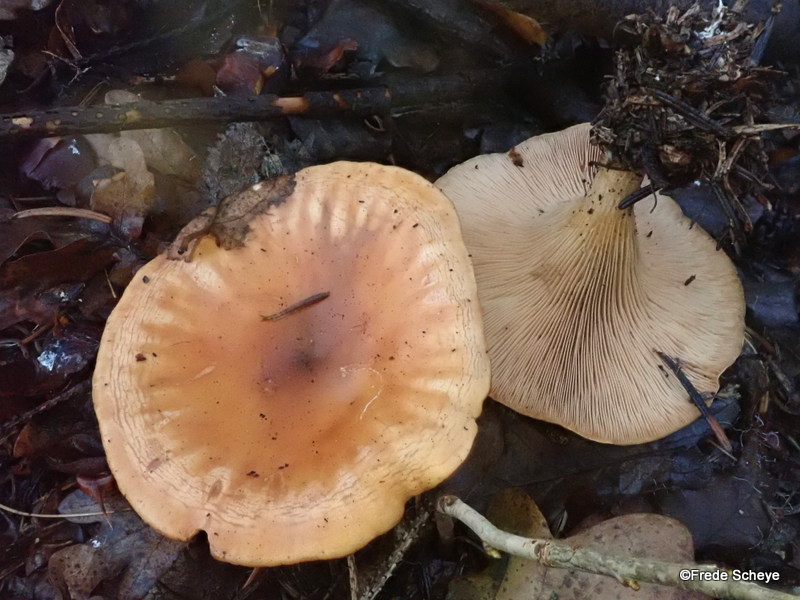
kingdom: Fungi
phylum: Basidiomycota
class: Agaricomycetes
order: Agaricales
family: Tricholomataceae
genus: Paralepista
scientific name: Paralepista flaccida
